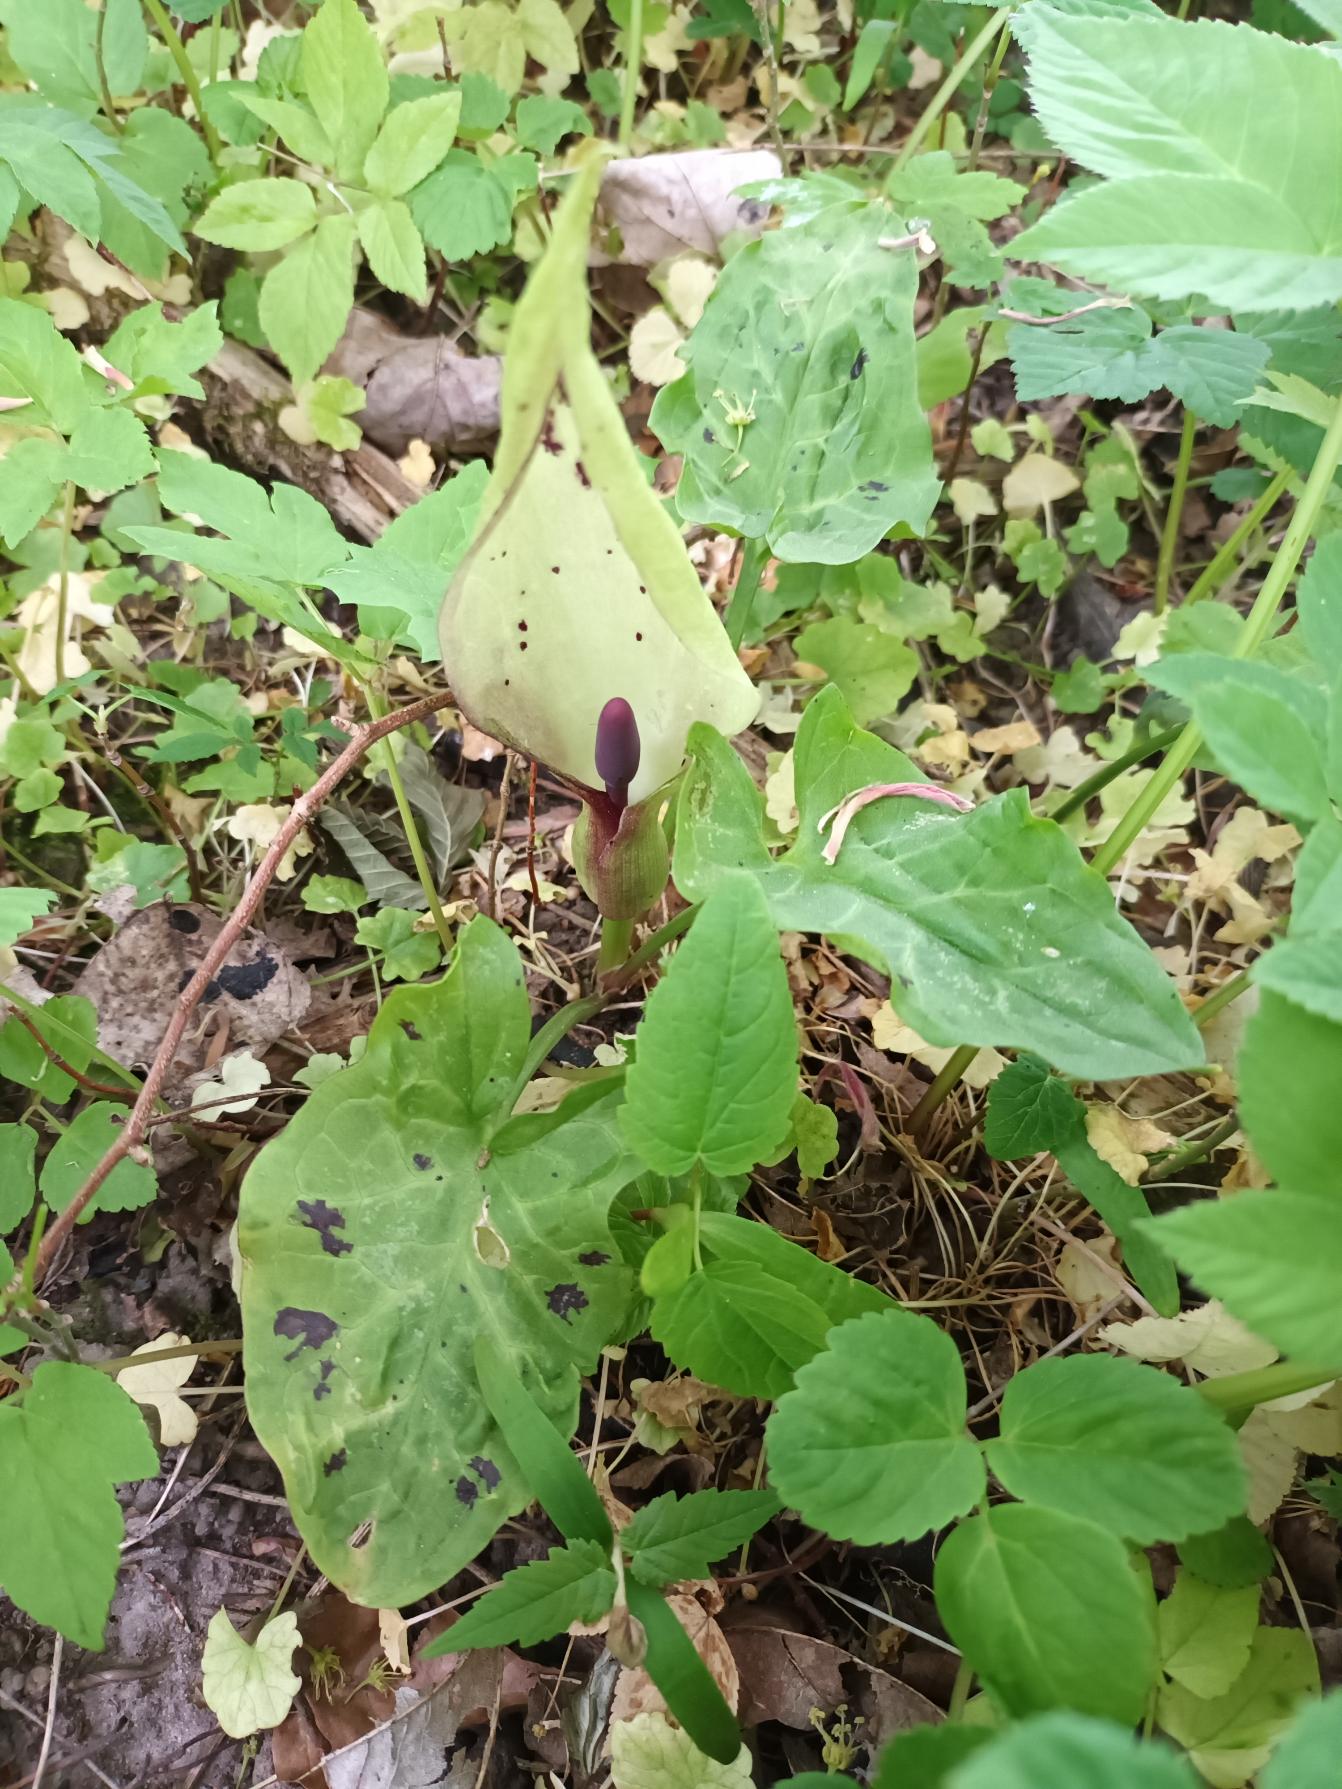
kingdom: Plantae
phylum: Tracheophyta
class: Liliopsida
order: Alismatales
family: Araceae
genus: Arum
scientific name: Arum maculatum
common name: Plettet arum
